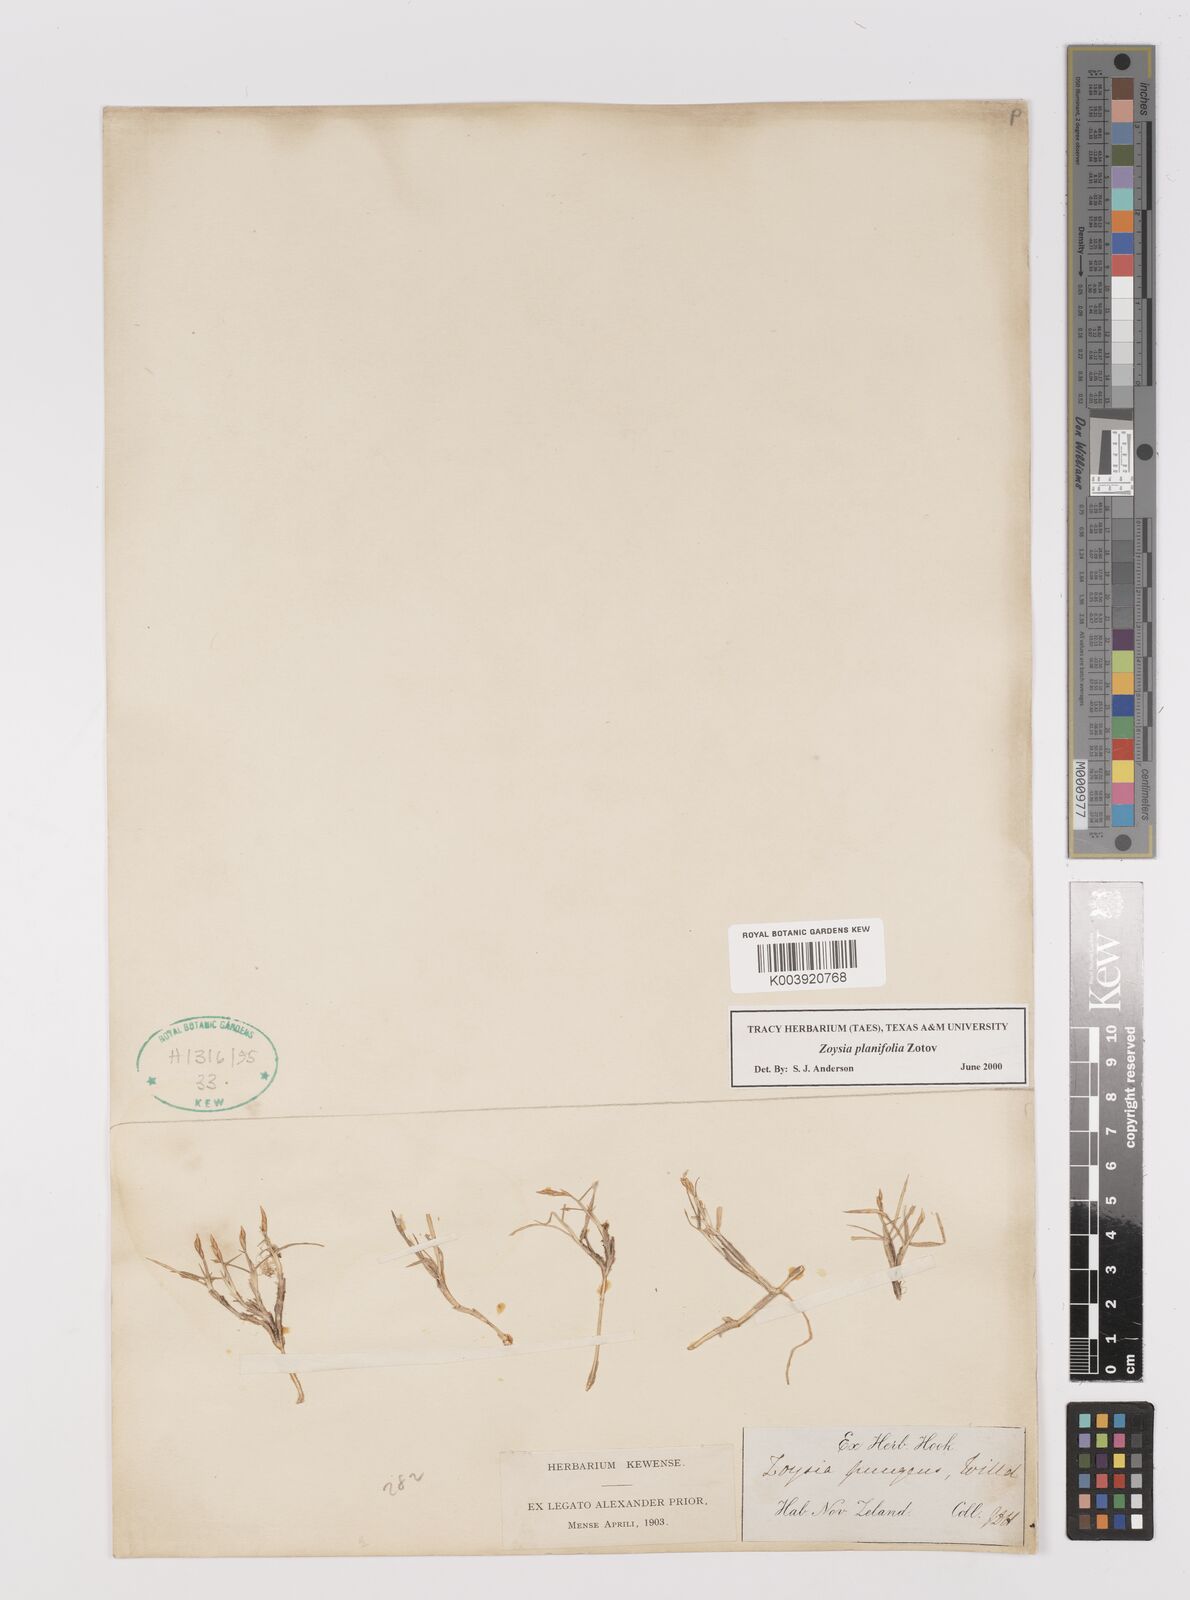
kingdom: Plantae
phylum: Tracheophyta
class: Liliopsida
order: Poales
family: Poaceae
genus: Zoysia
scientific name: Zoysia pauciflora
